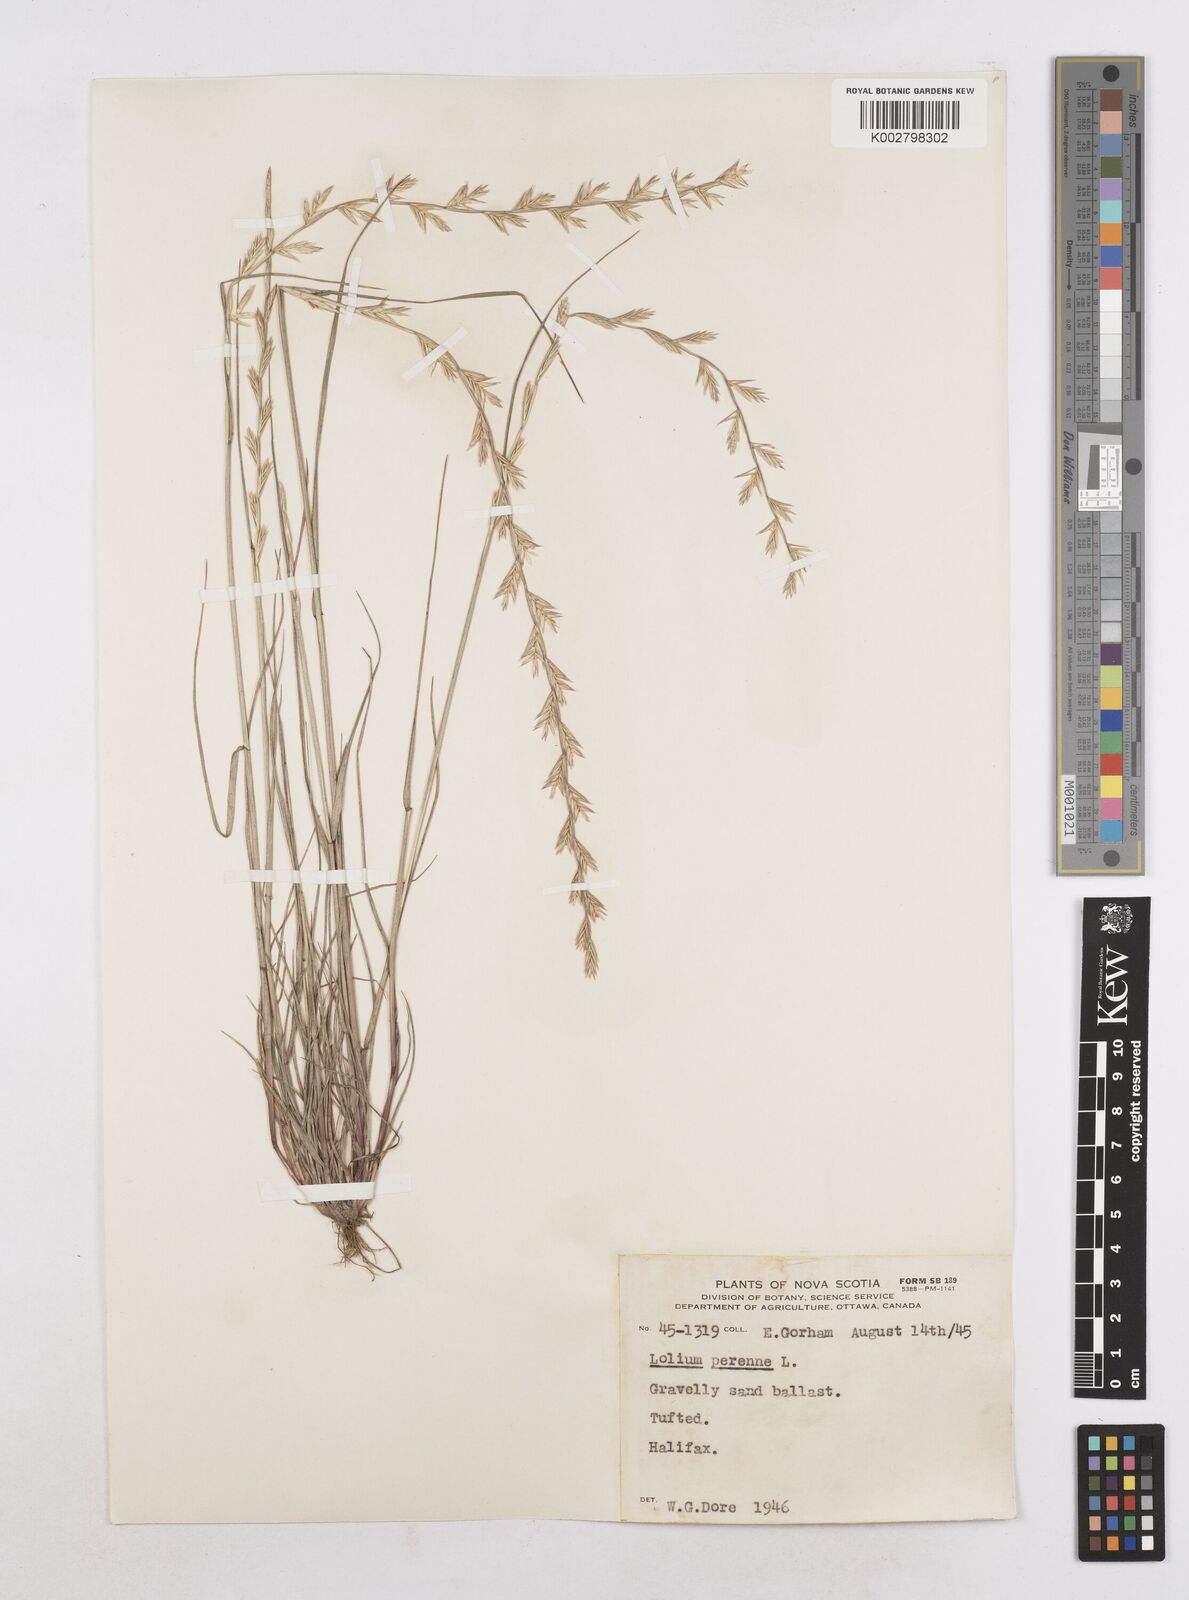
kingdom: Plantae
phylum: Tracheophyta
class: Liliopsida
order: Poales
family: Poaceae
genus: Lolium
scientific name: Lolium perenne
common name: Perennial ryegrass
